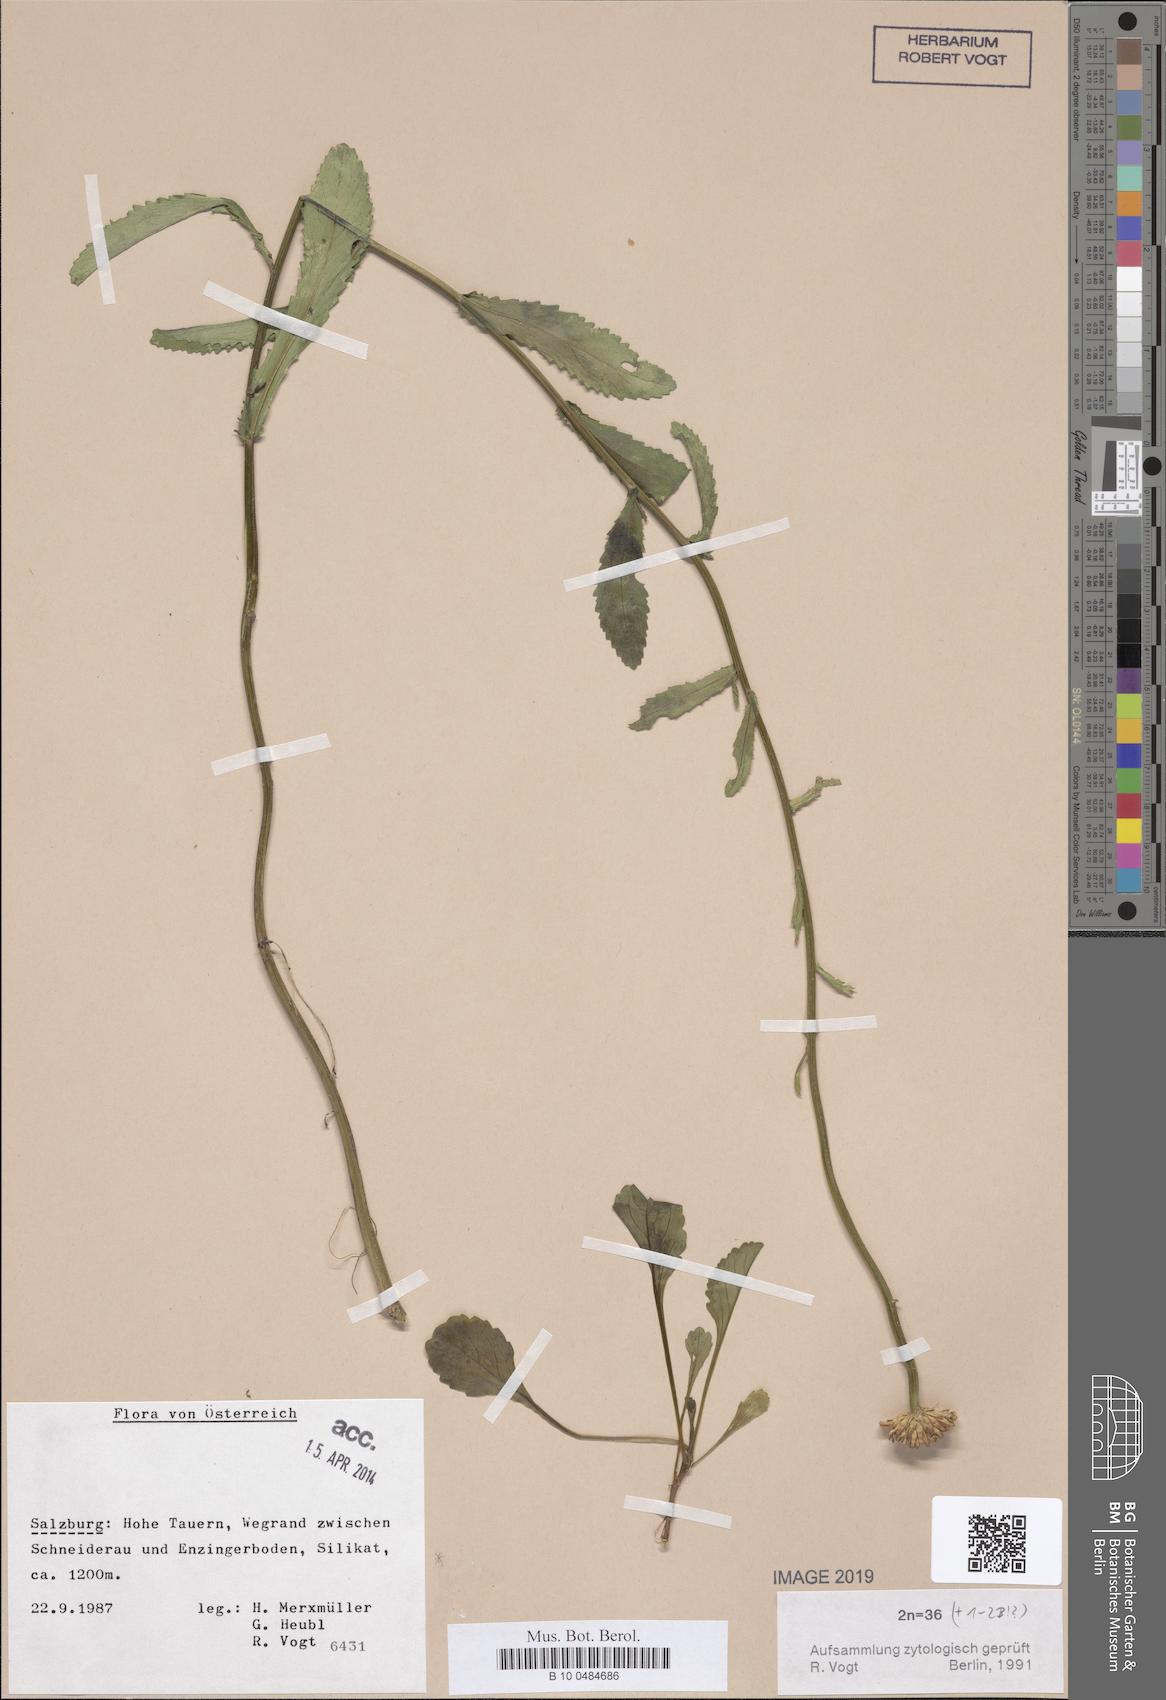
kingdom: Plantae
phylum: Tracheophyta
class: Magnoliopsida
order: Asterales
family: Asteraceae
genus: Leucanthemum
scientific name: Leucanthemum ircutianum
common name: Daisy
